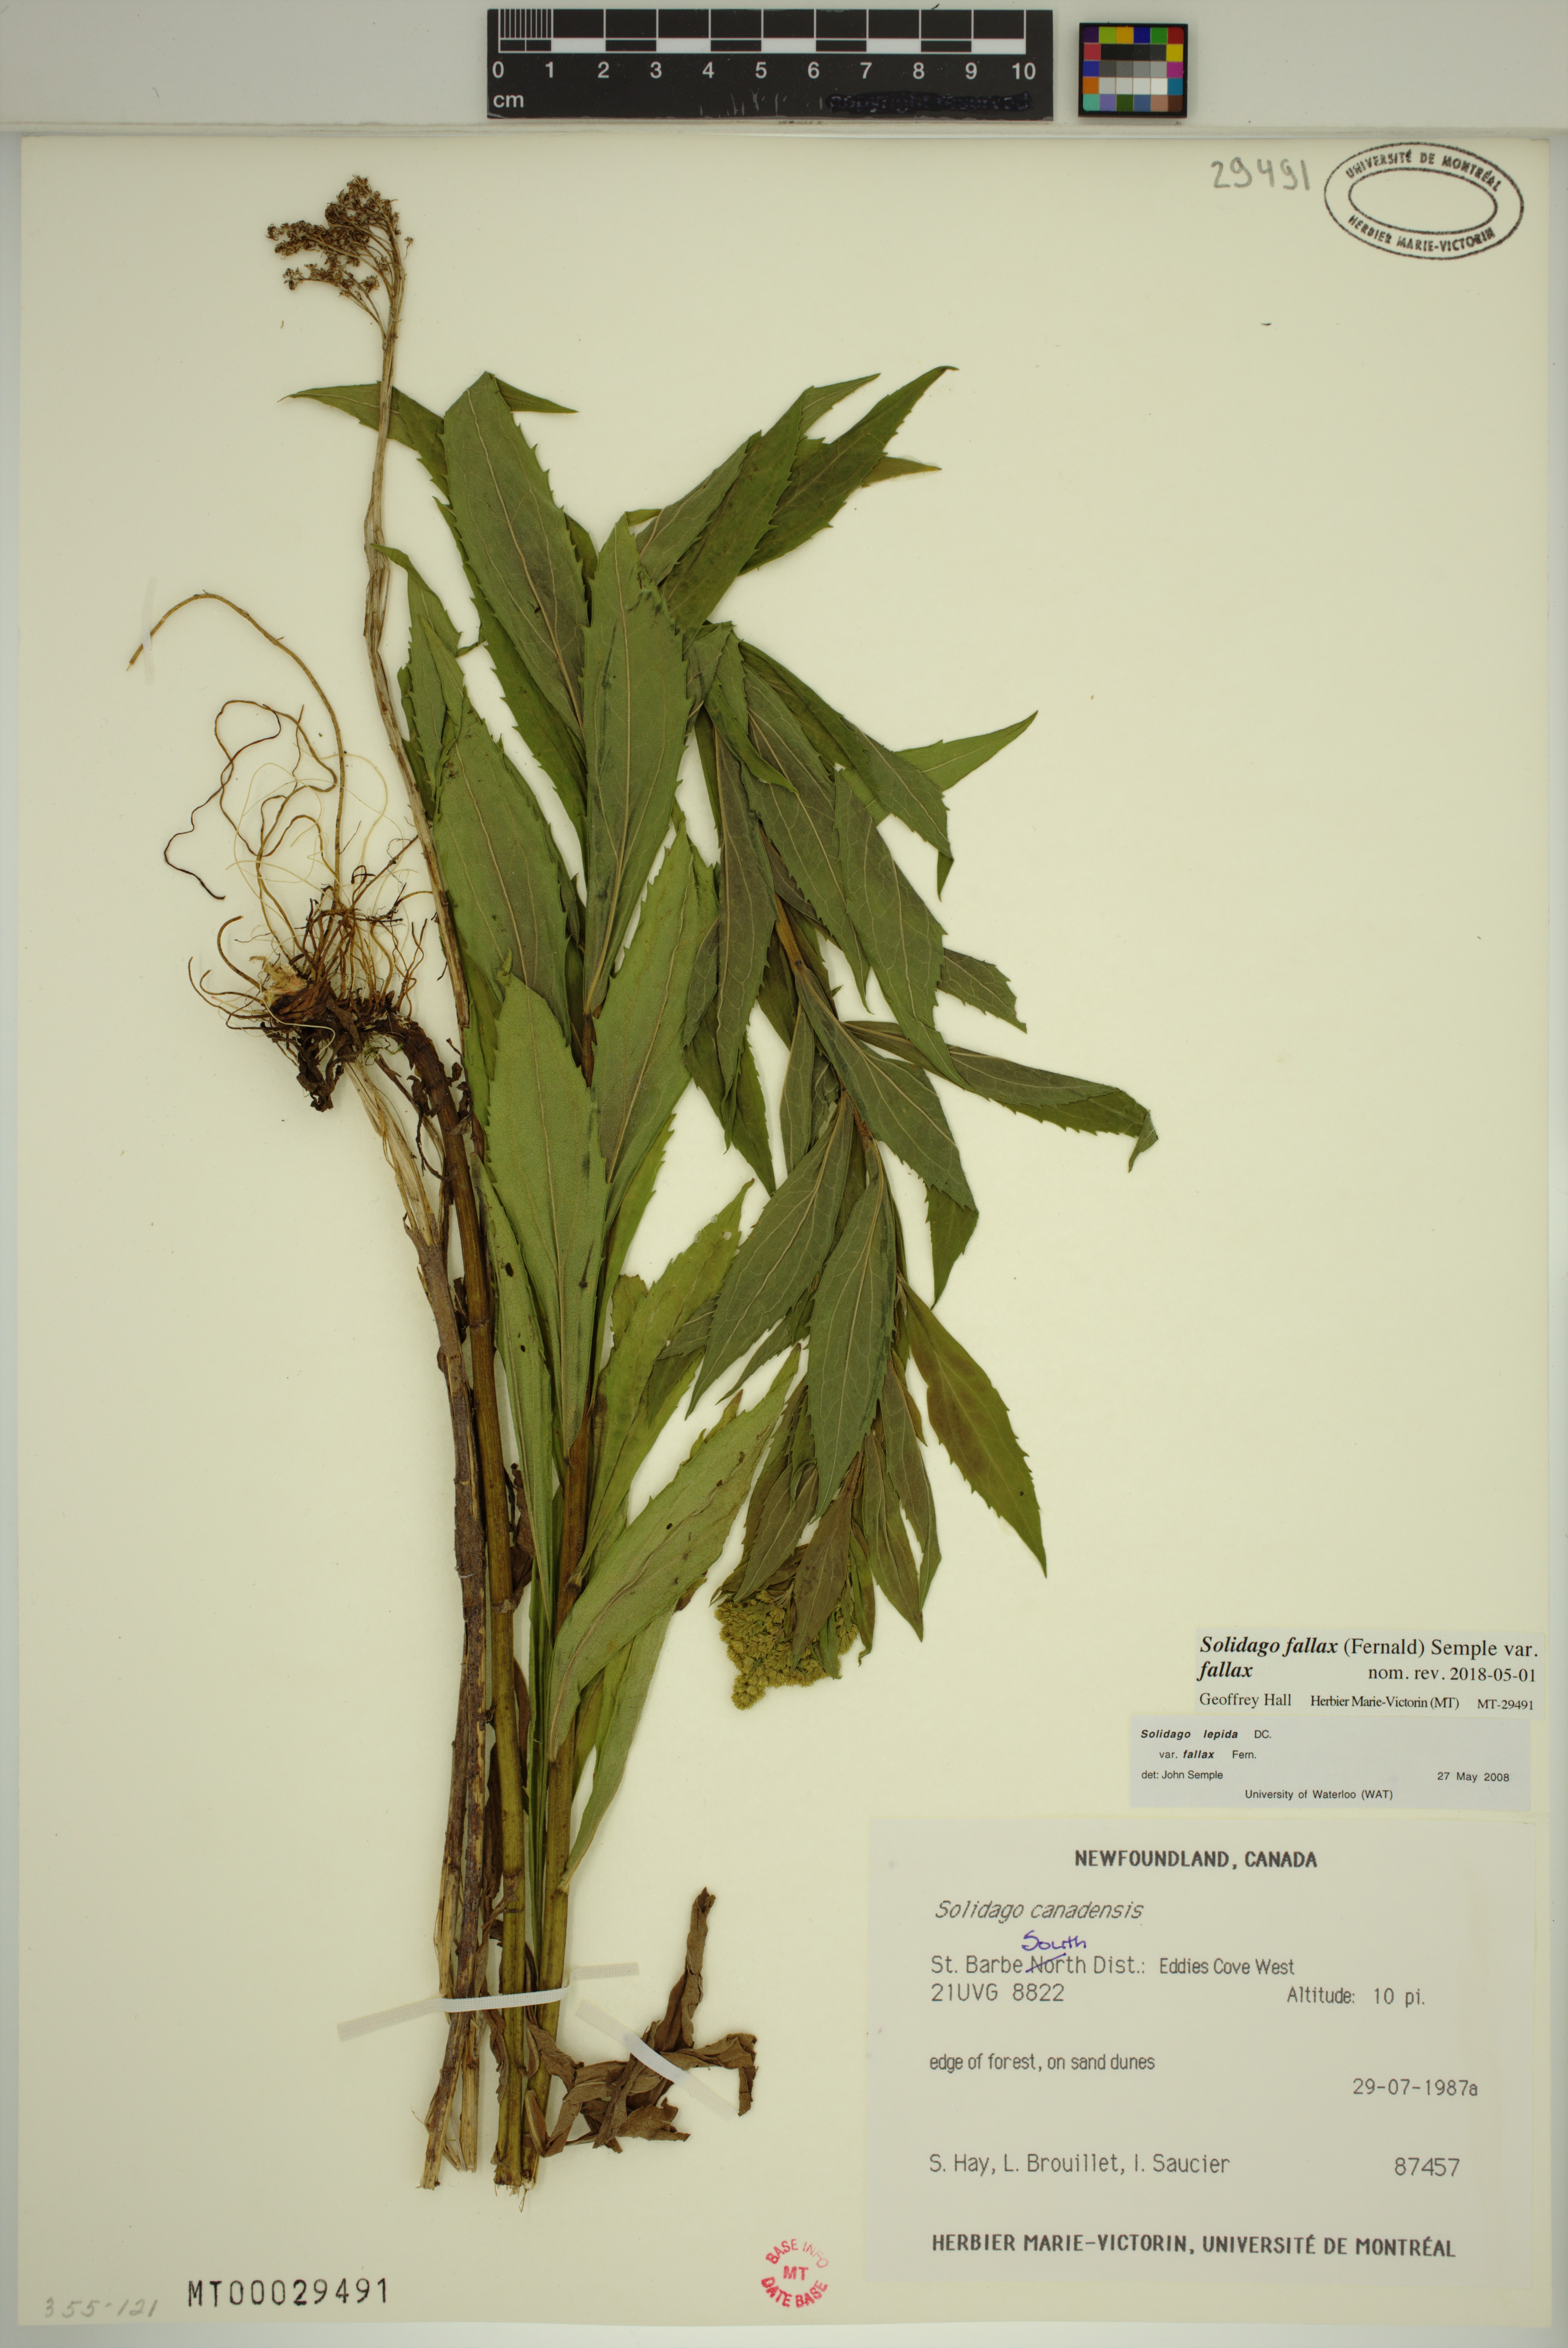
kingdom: Plantae
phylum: Tracheophyta
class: Magnoliopsida
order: Asterales
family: Asteraceae
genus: Solidago
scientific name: Solidago fallax
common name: Big-toothed canada goldenrod
